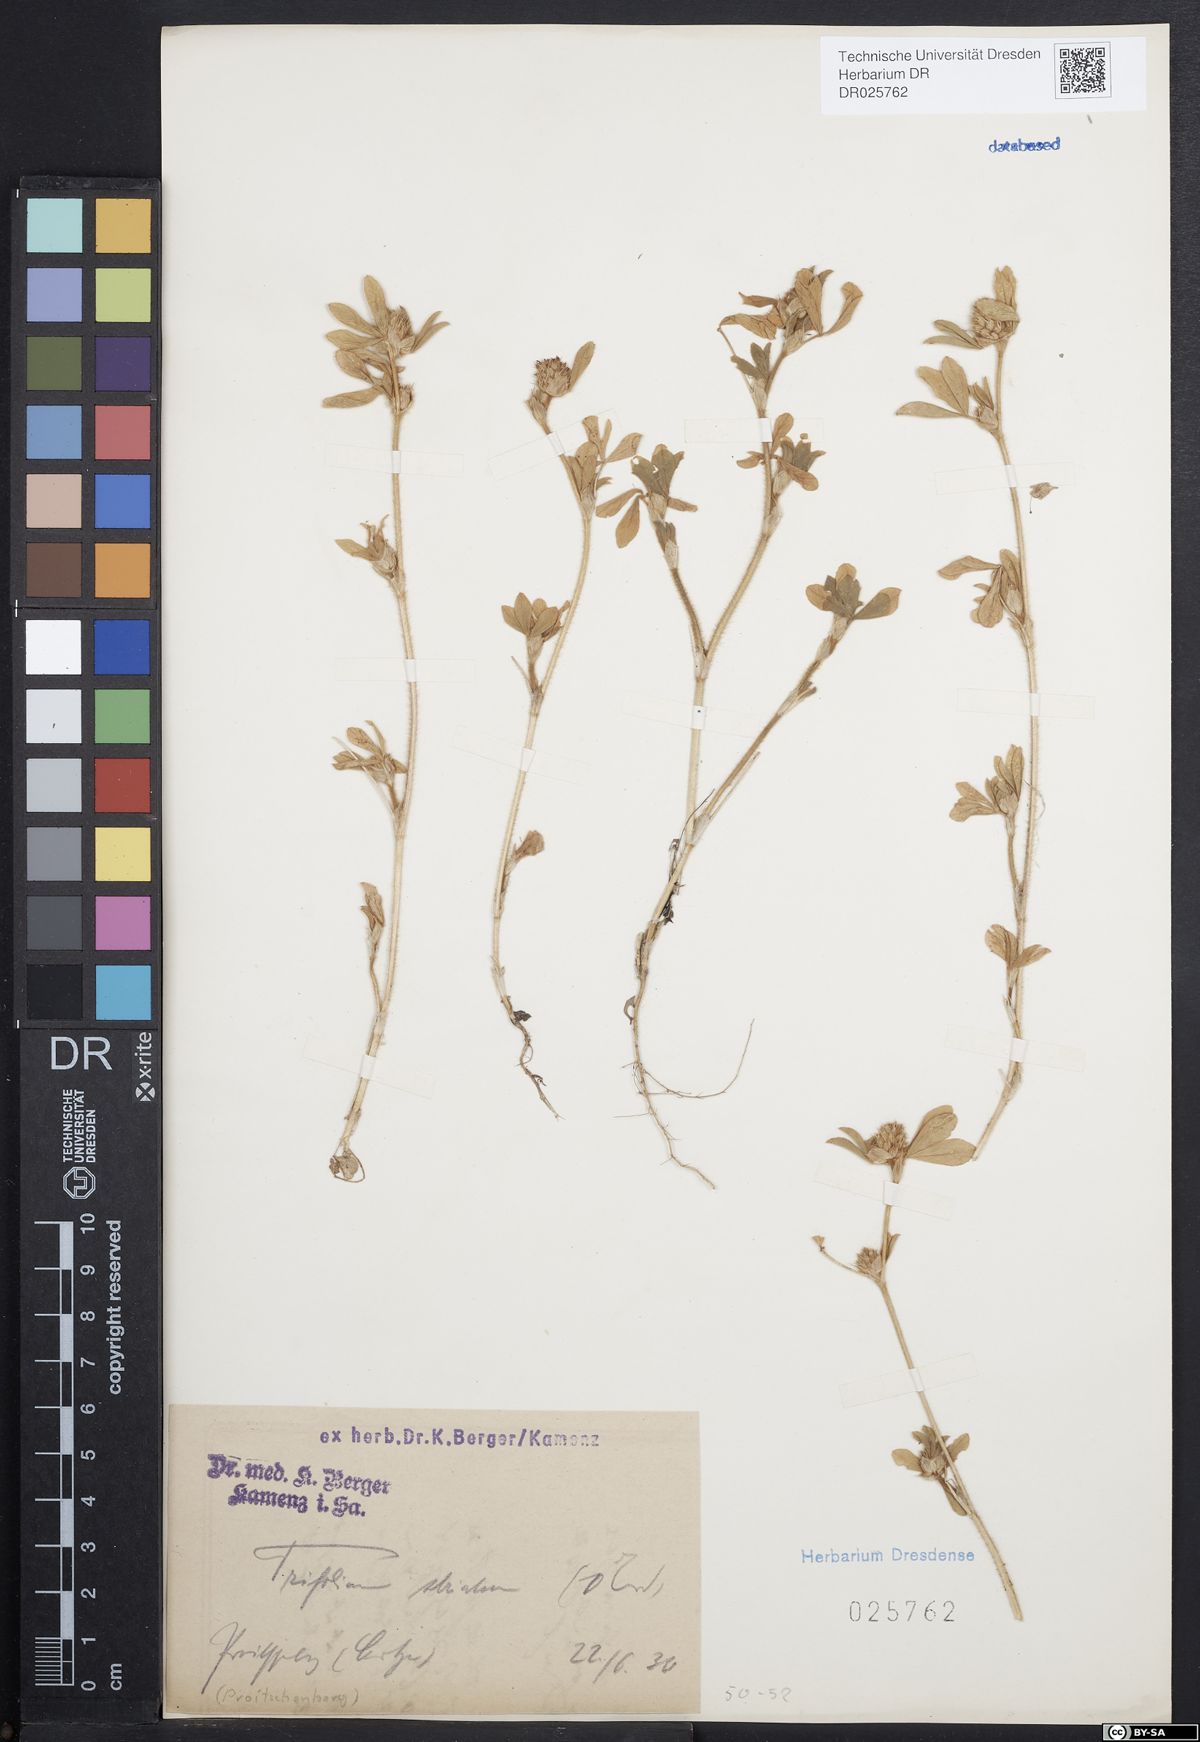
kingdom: Plantae
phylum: Tracheophyta
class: Magnoliopsida
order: Fabales
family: Fabaceae
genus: Trifolium
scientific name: Trifolium striatum
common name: Knotted clover
